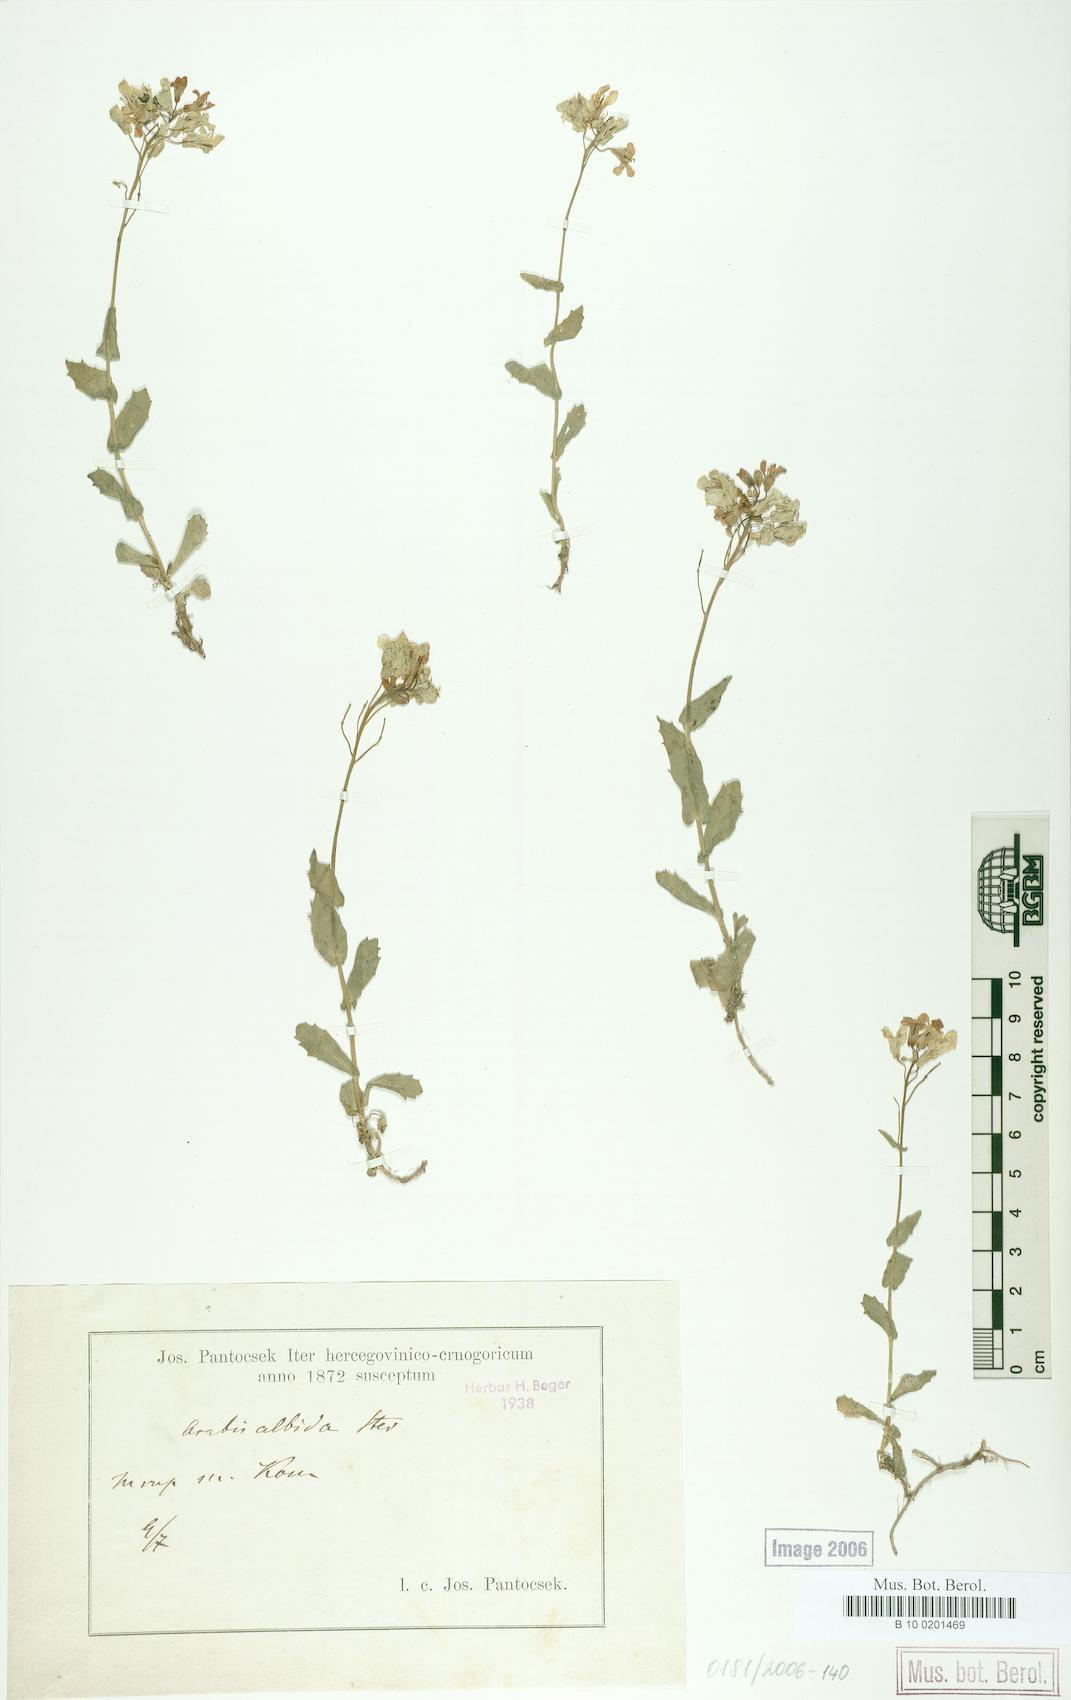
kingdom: Plantae
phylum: Tracheophyta
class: Magnoliopsida
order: Brassicales
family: Brassicaceae
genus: Arabis
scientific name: Arabis alpina
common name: Alpine rock-cress
